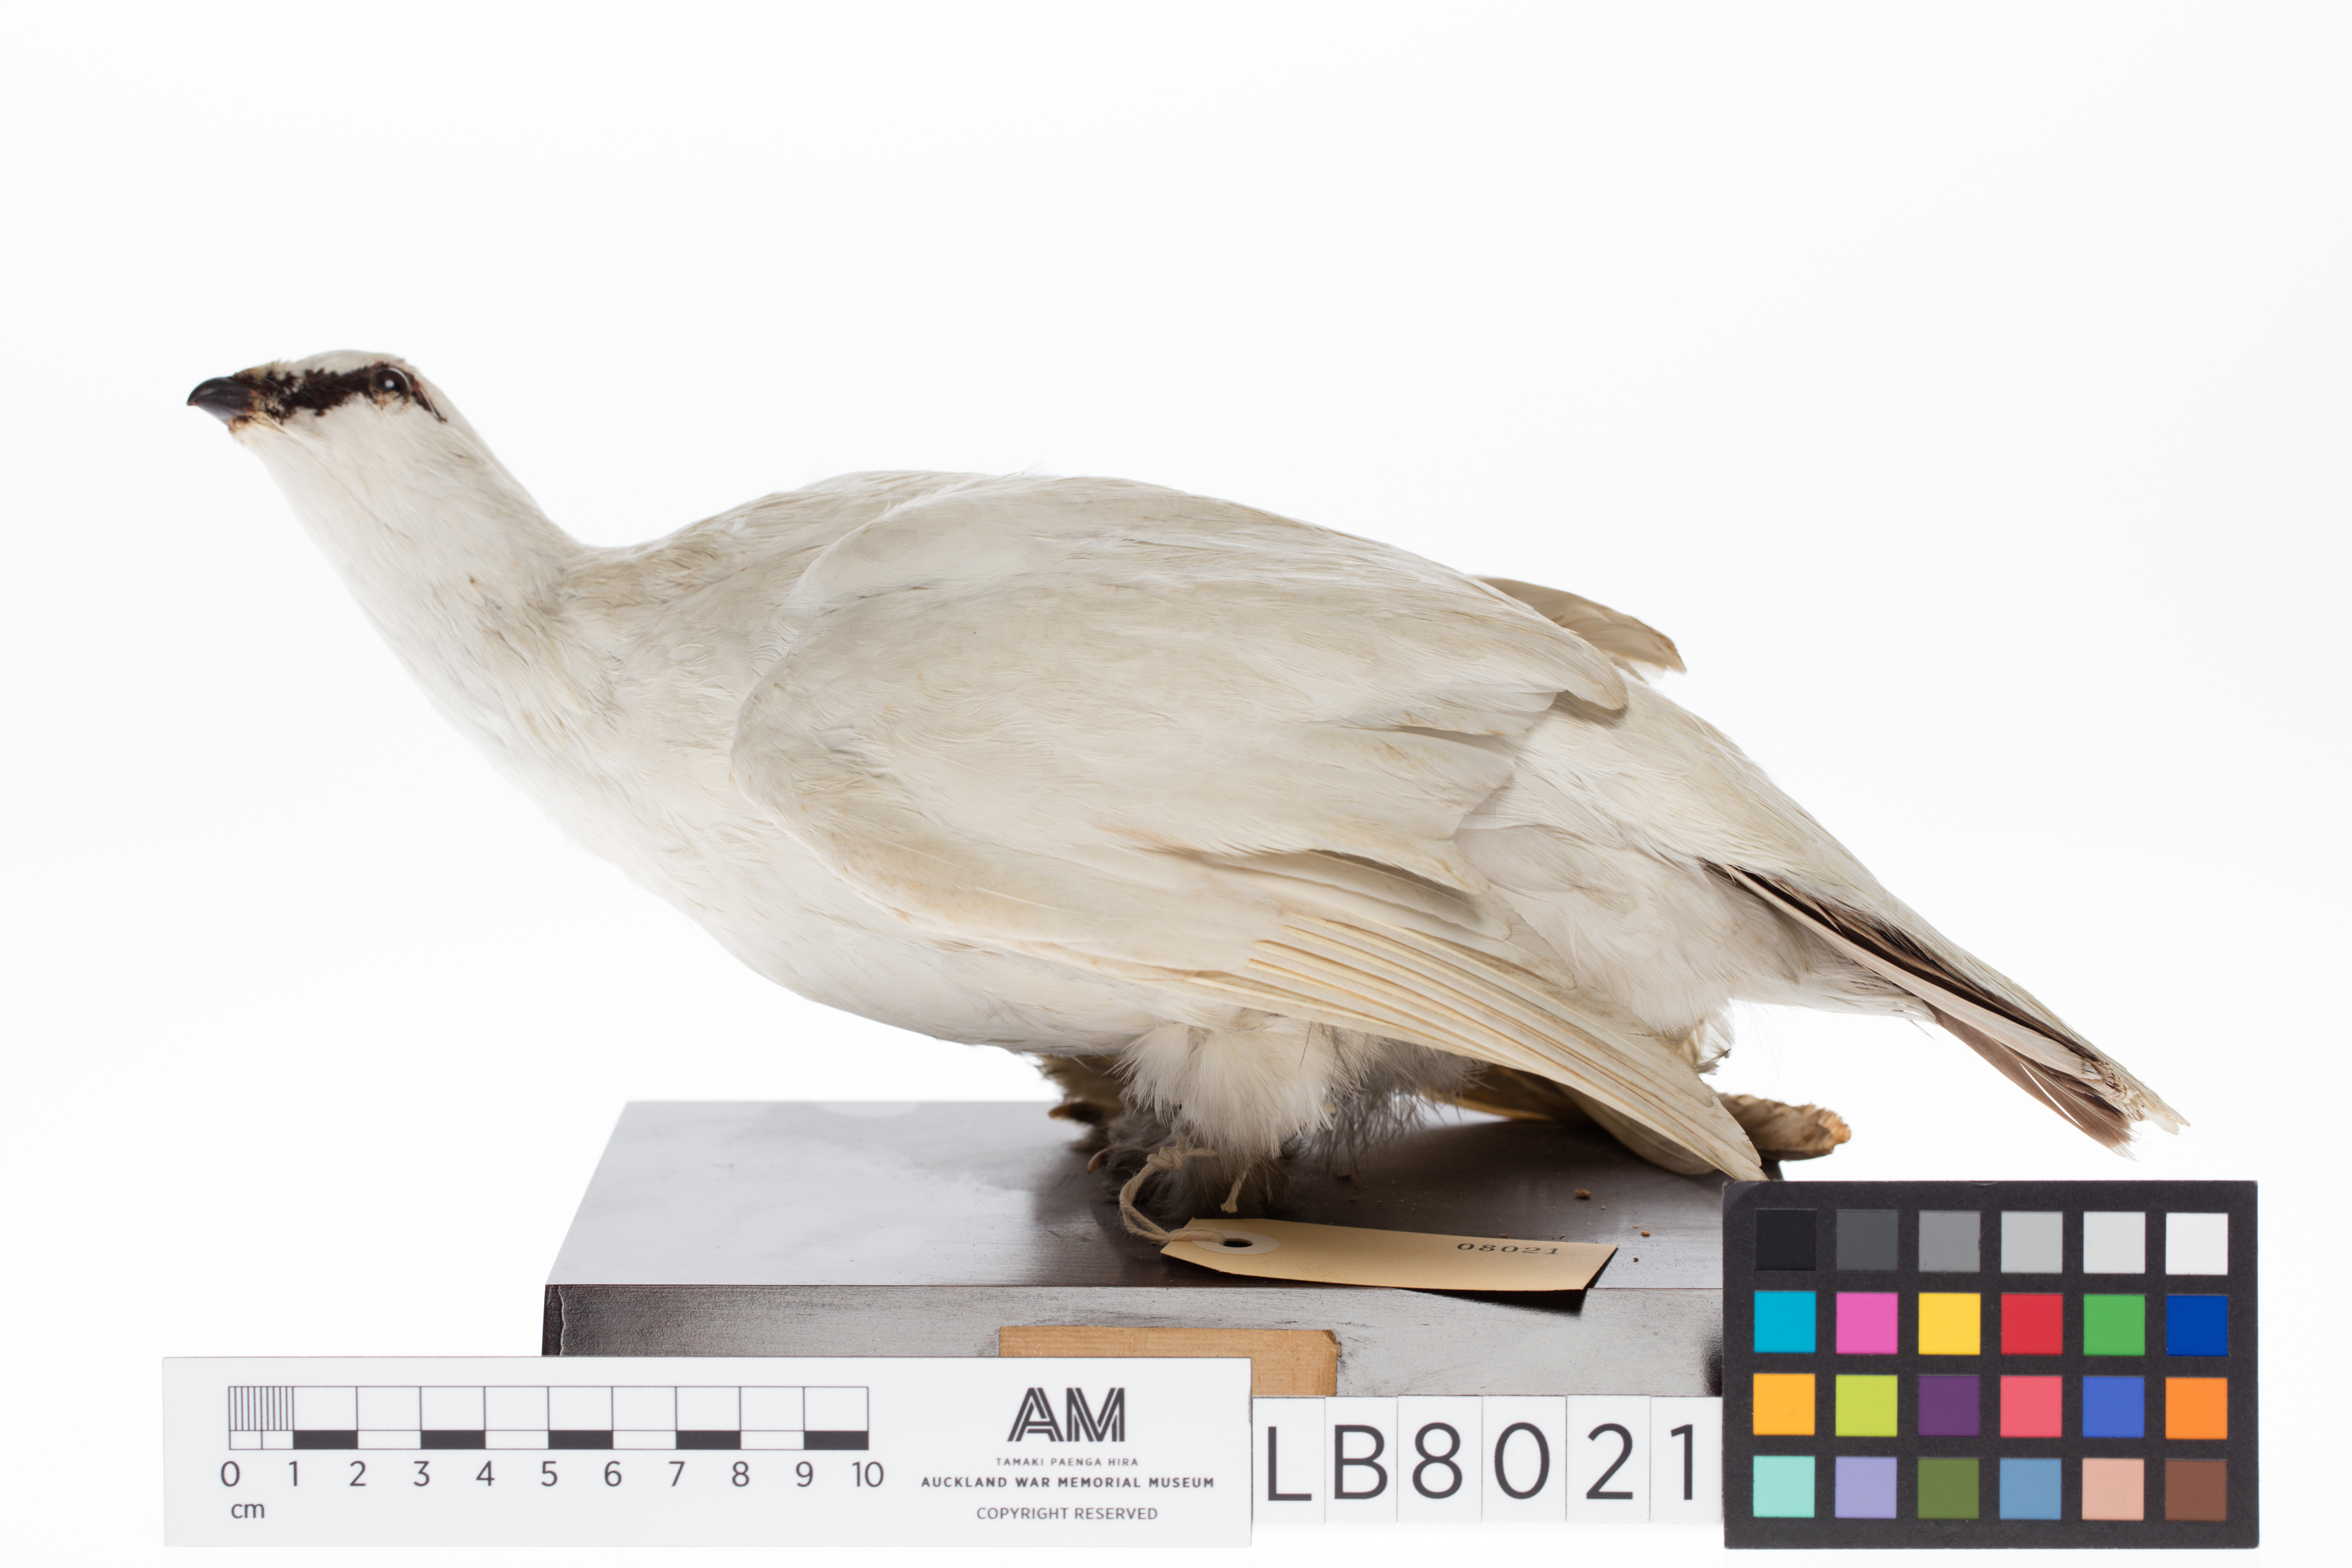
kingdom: Animalia
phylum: Chordata
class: Aves
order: Galliformes
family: Phasianidae
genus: Lagopus
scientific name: Lagopus muta
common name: Rock ptarmigan
